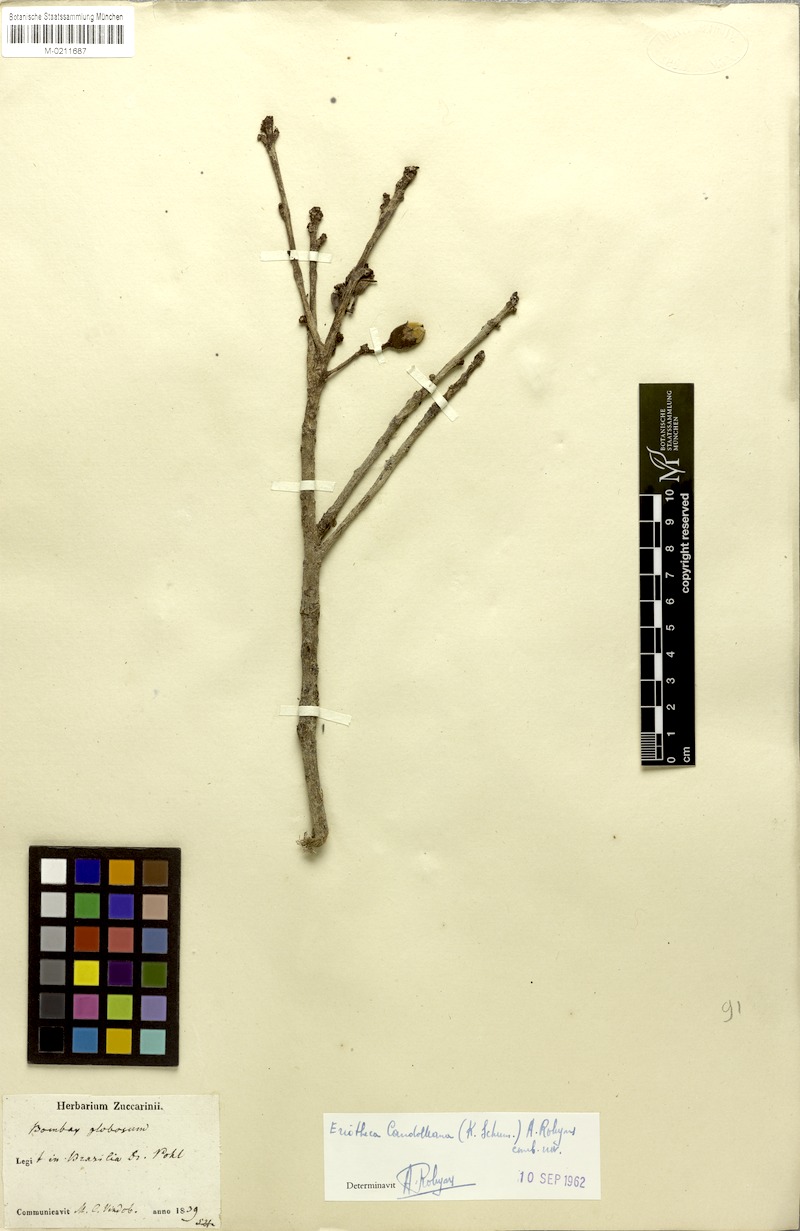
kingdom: Plantae
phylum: Tracheophyta
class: Magnoliopsida
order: Malvales
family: Malvaceae
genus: Eriotheca
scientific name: Eriotheca candolleana
